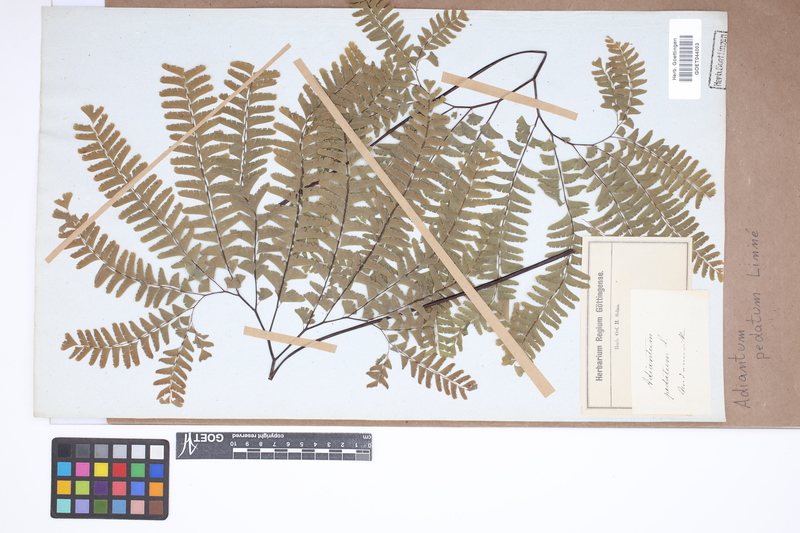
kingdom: Plantae
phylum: Tracheophyta
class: Polypodiopsida
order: Polypodiales
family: Pteridaceae
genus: Adiantum
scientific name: Adiantum pedatum
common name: Five-finger fern
